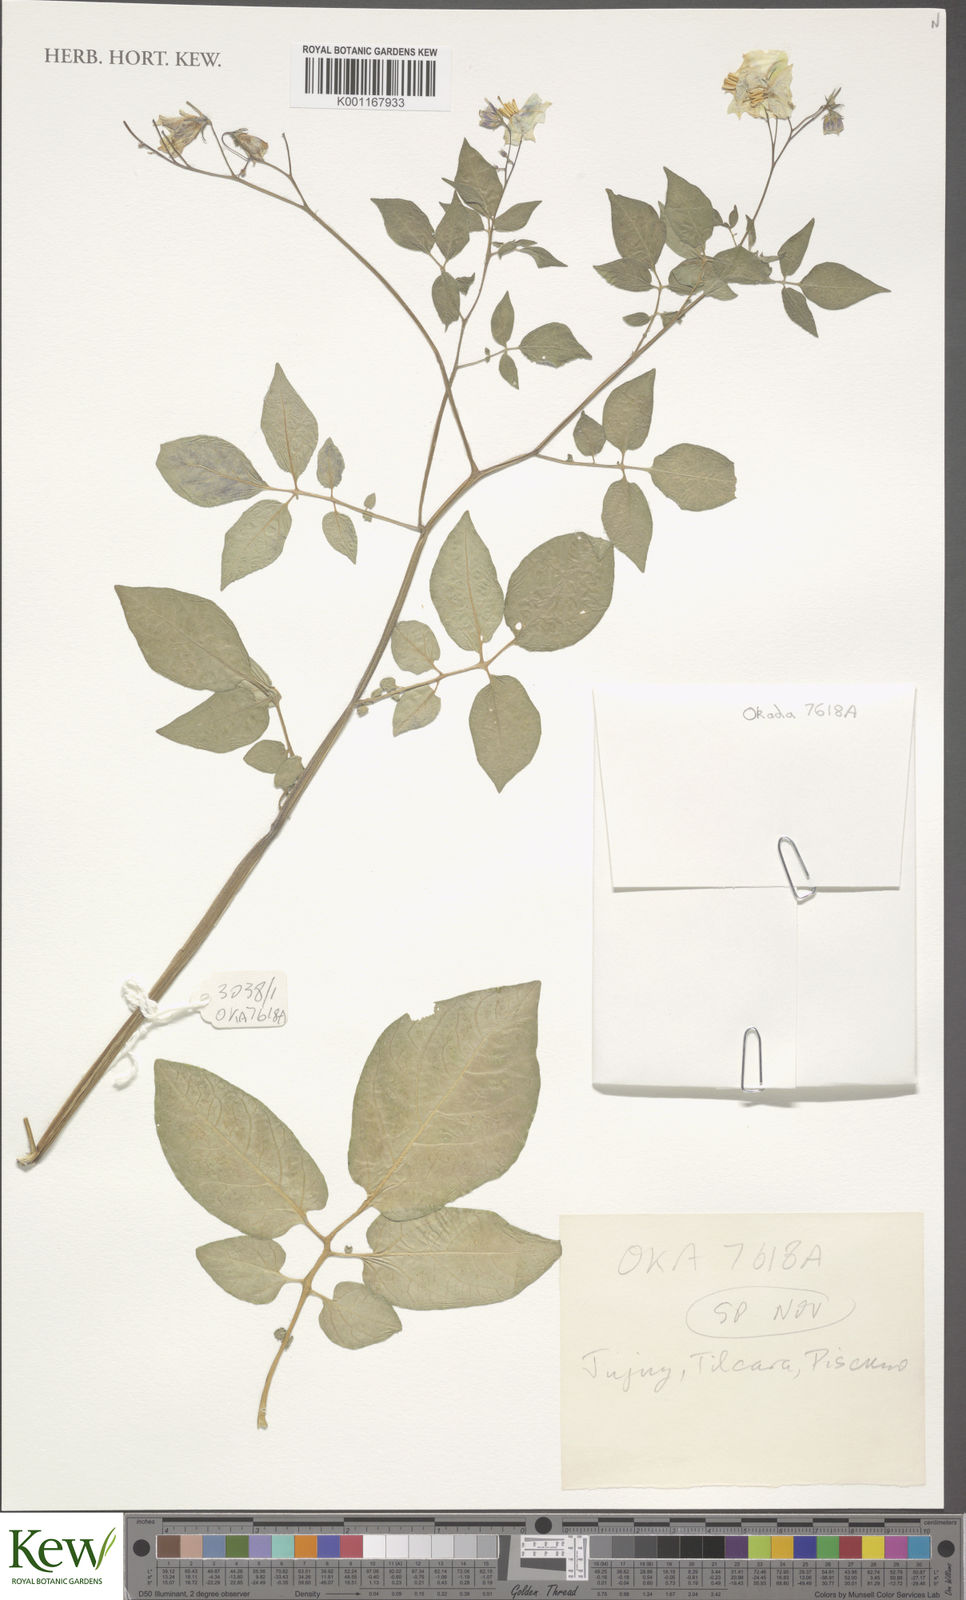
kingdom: Plantae
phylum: Tracheophyta
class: Magnoliopsida
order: Solanales
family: Solanaceae
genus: Solanum
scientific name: Solanum
